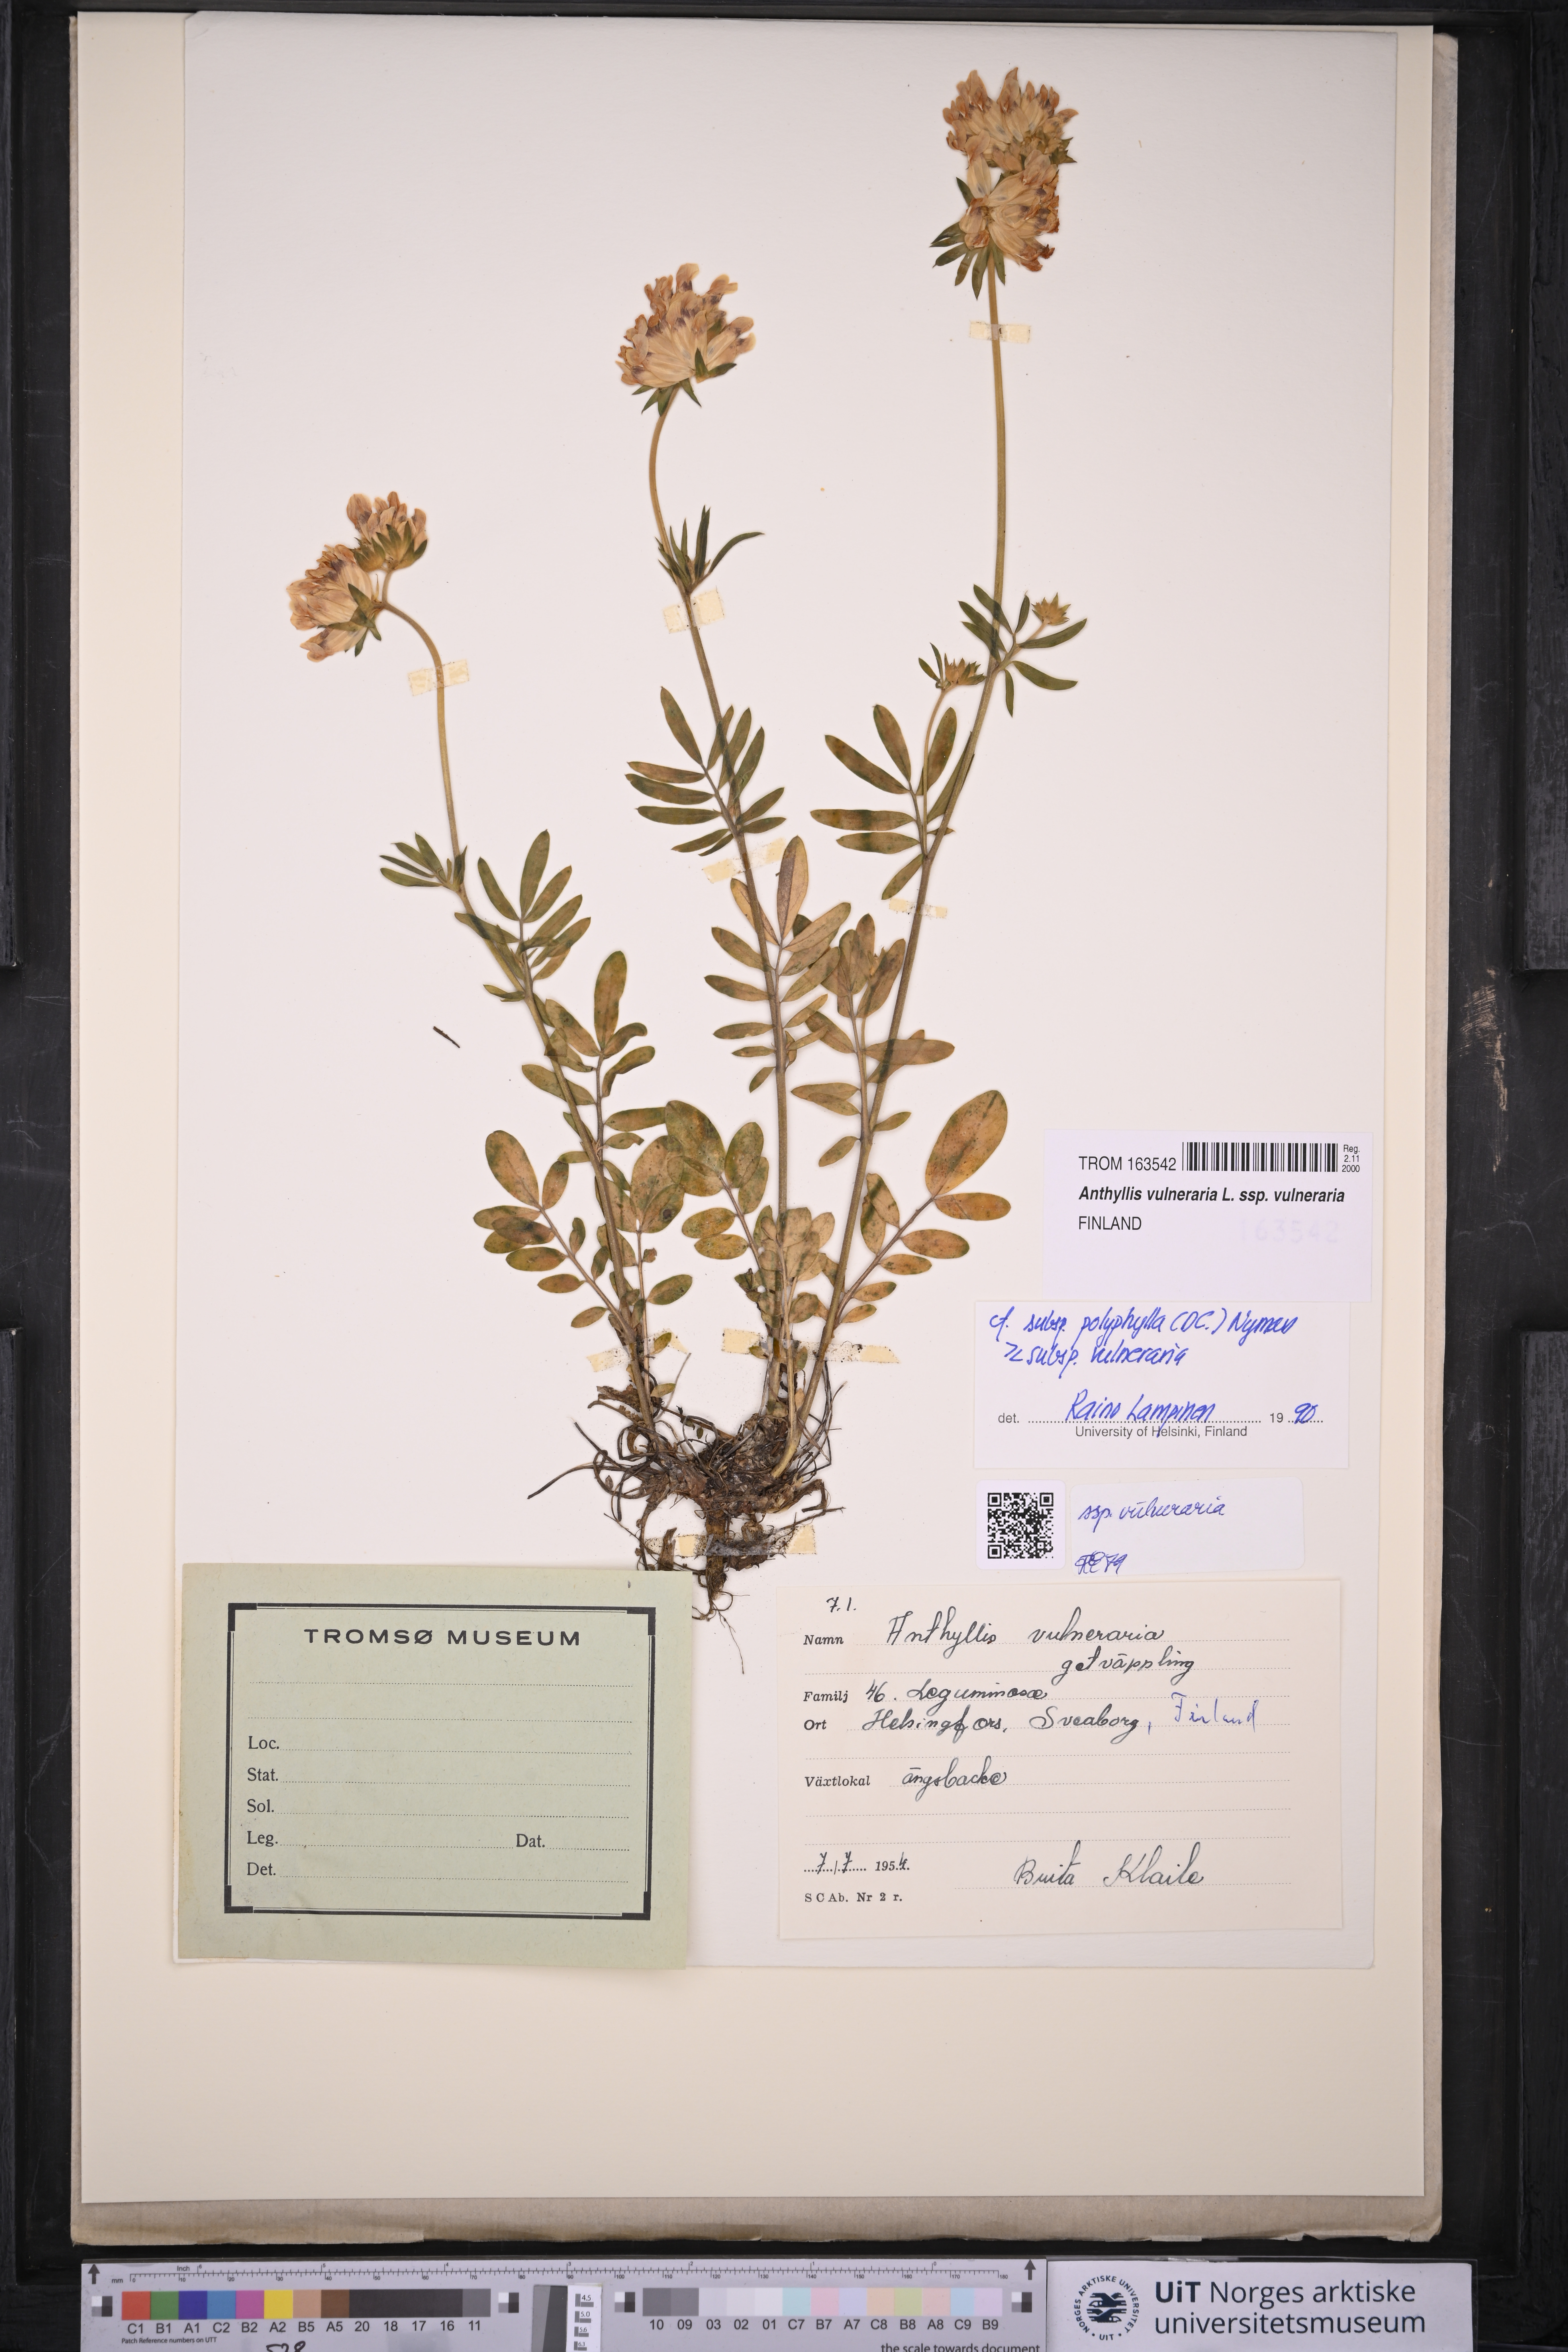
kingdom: Plantae
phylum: Tracheophyta
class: Magnoliopsida
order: Fabales
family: Fabaceae
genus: Anthyllis
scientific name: Anthyllis vulneraria
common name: Kidney vetch
